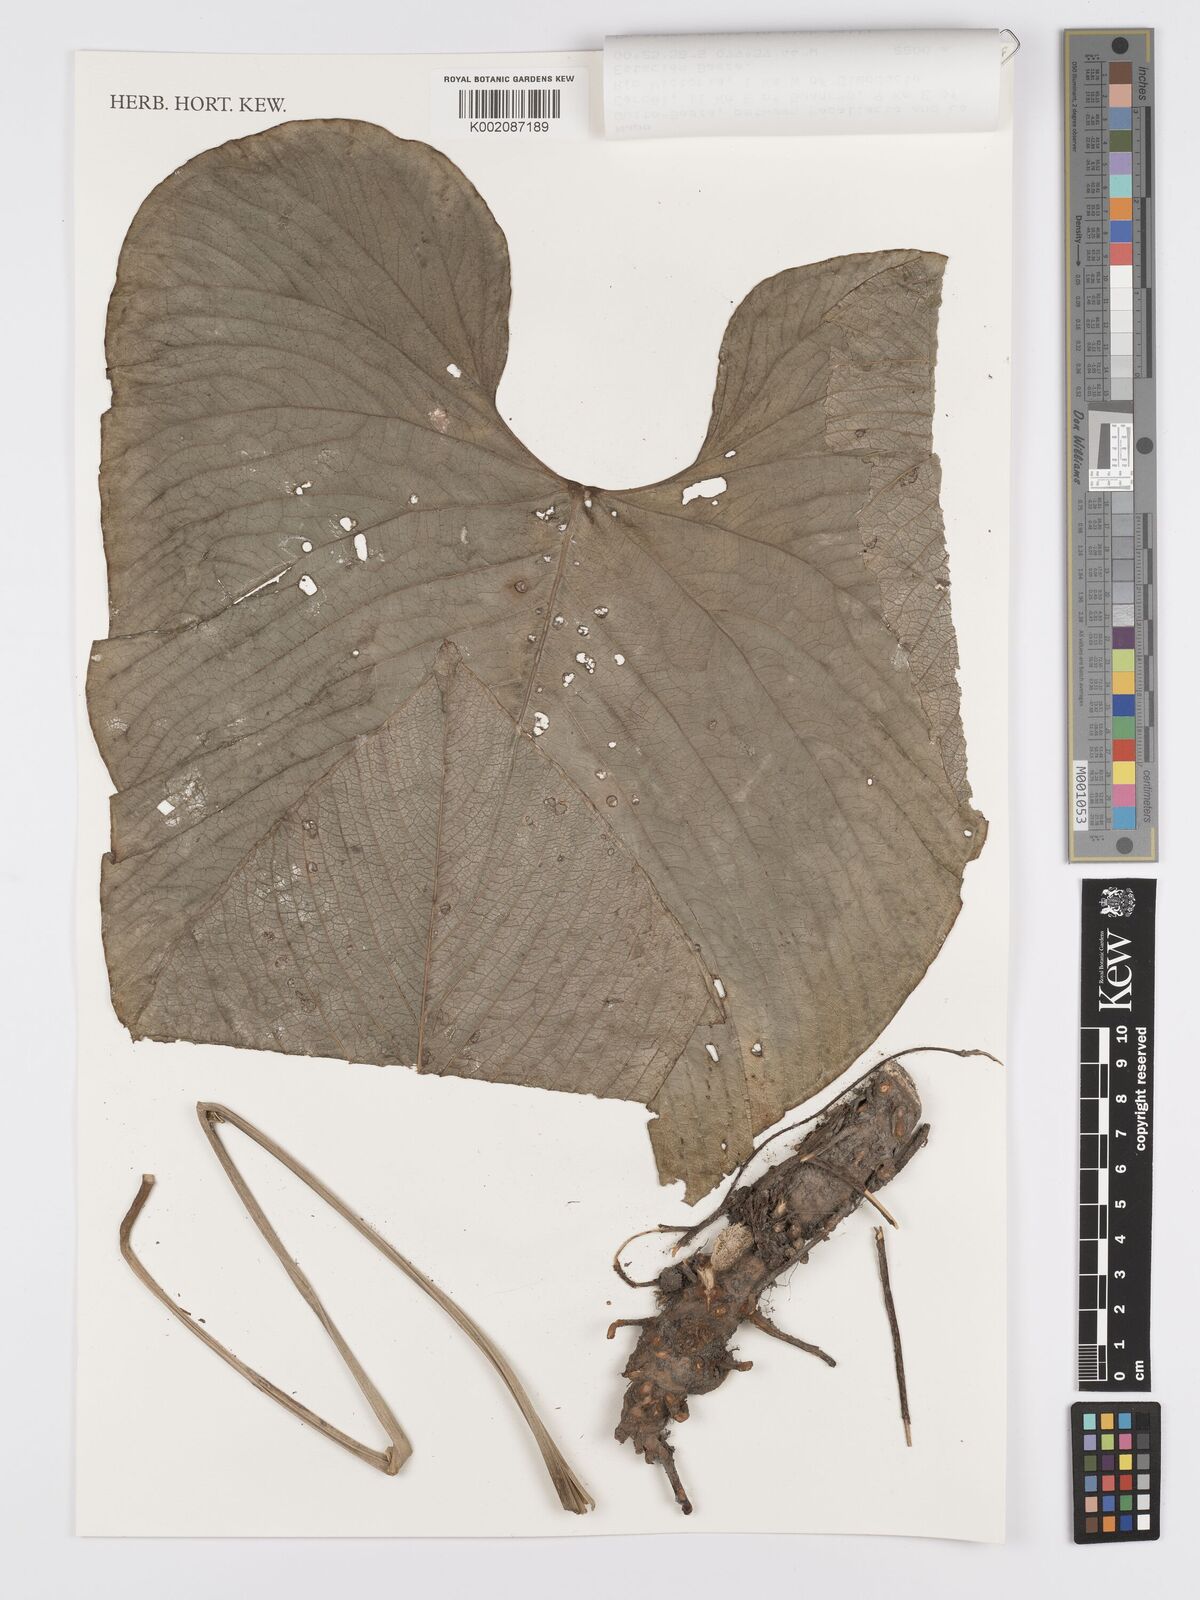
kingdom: Plantae
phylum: Tracheophyta
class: Liliopsida
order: Alismatales
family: Araceae
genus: Anthurium
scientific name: Anthurium umbraculum
